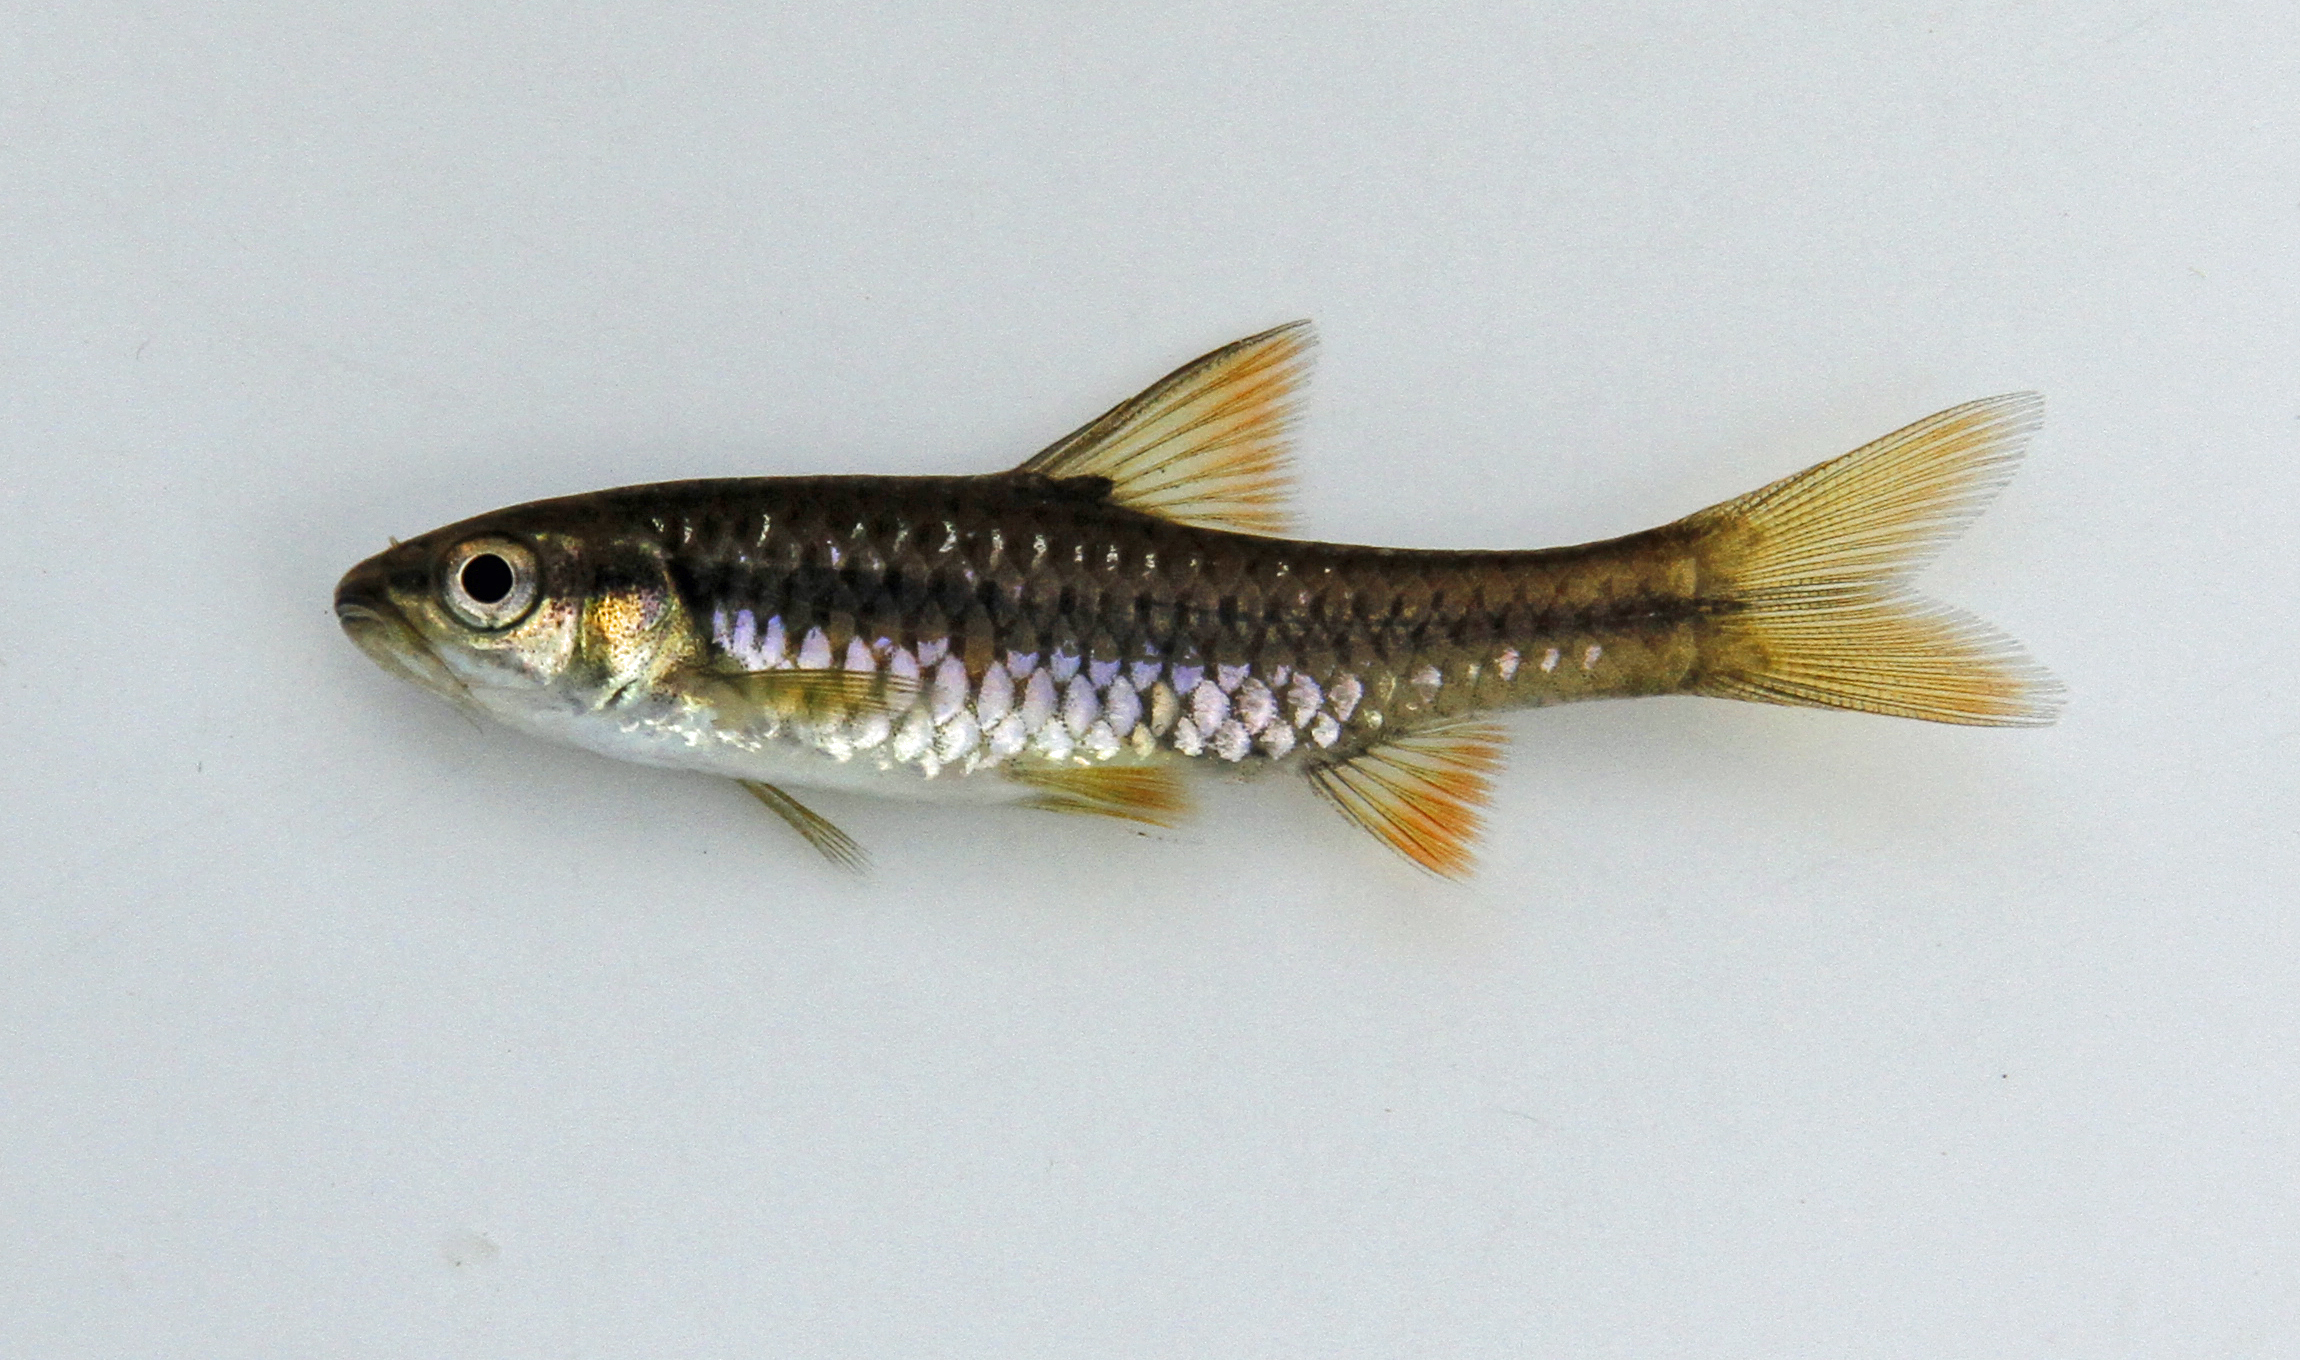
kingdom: Animalia
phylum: Chordata
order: Cypriniformes
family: Cyprinidae
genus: Enteromius
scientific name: Enteromius eutaenia
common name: Orangefin barb
